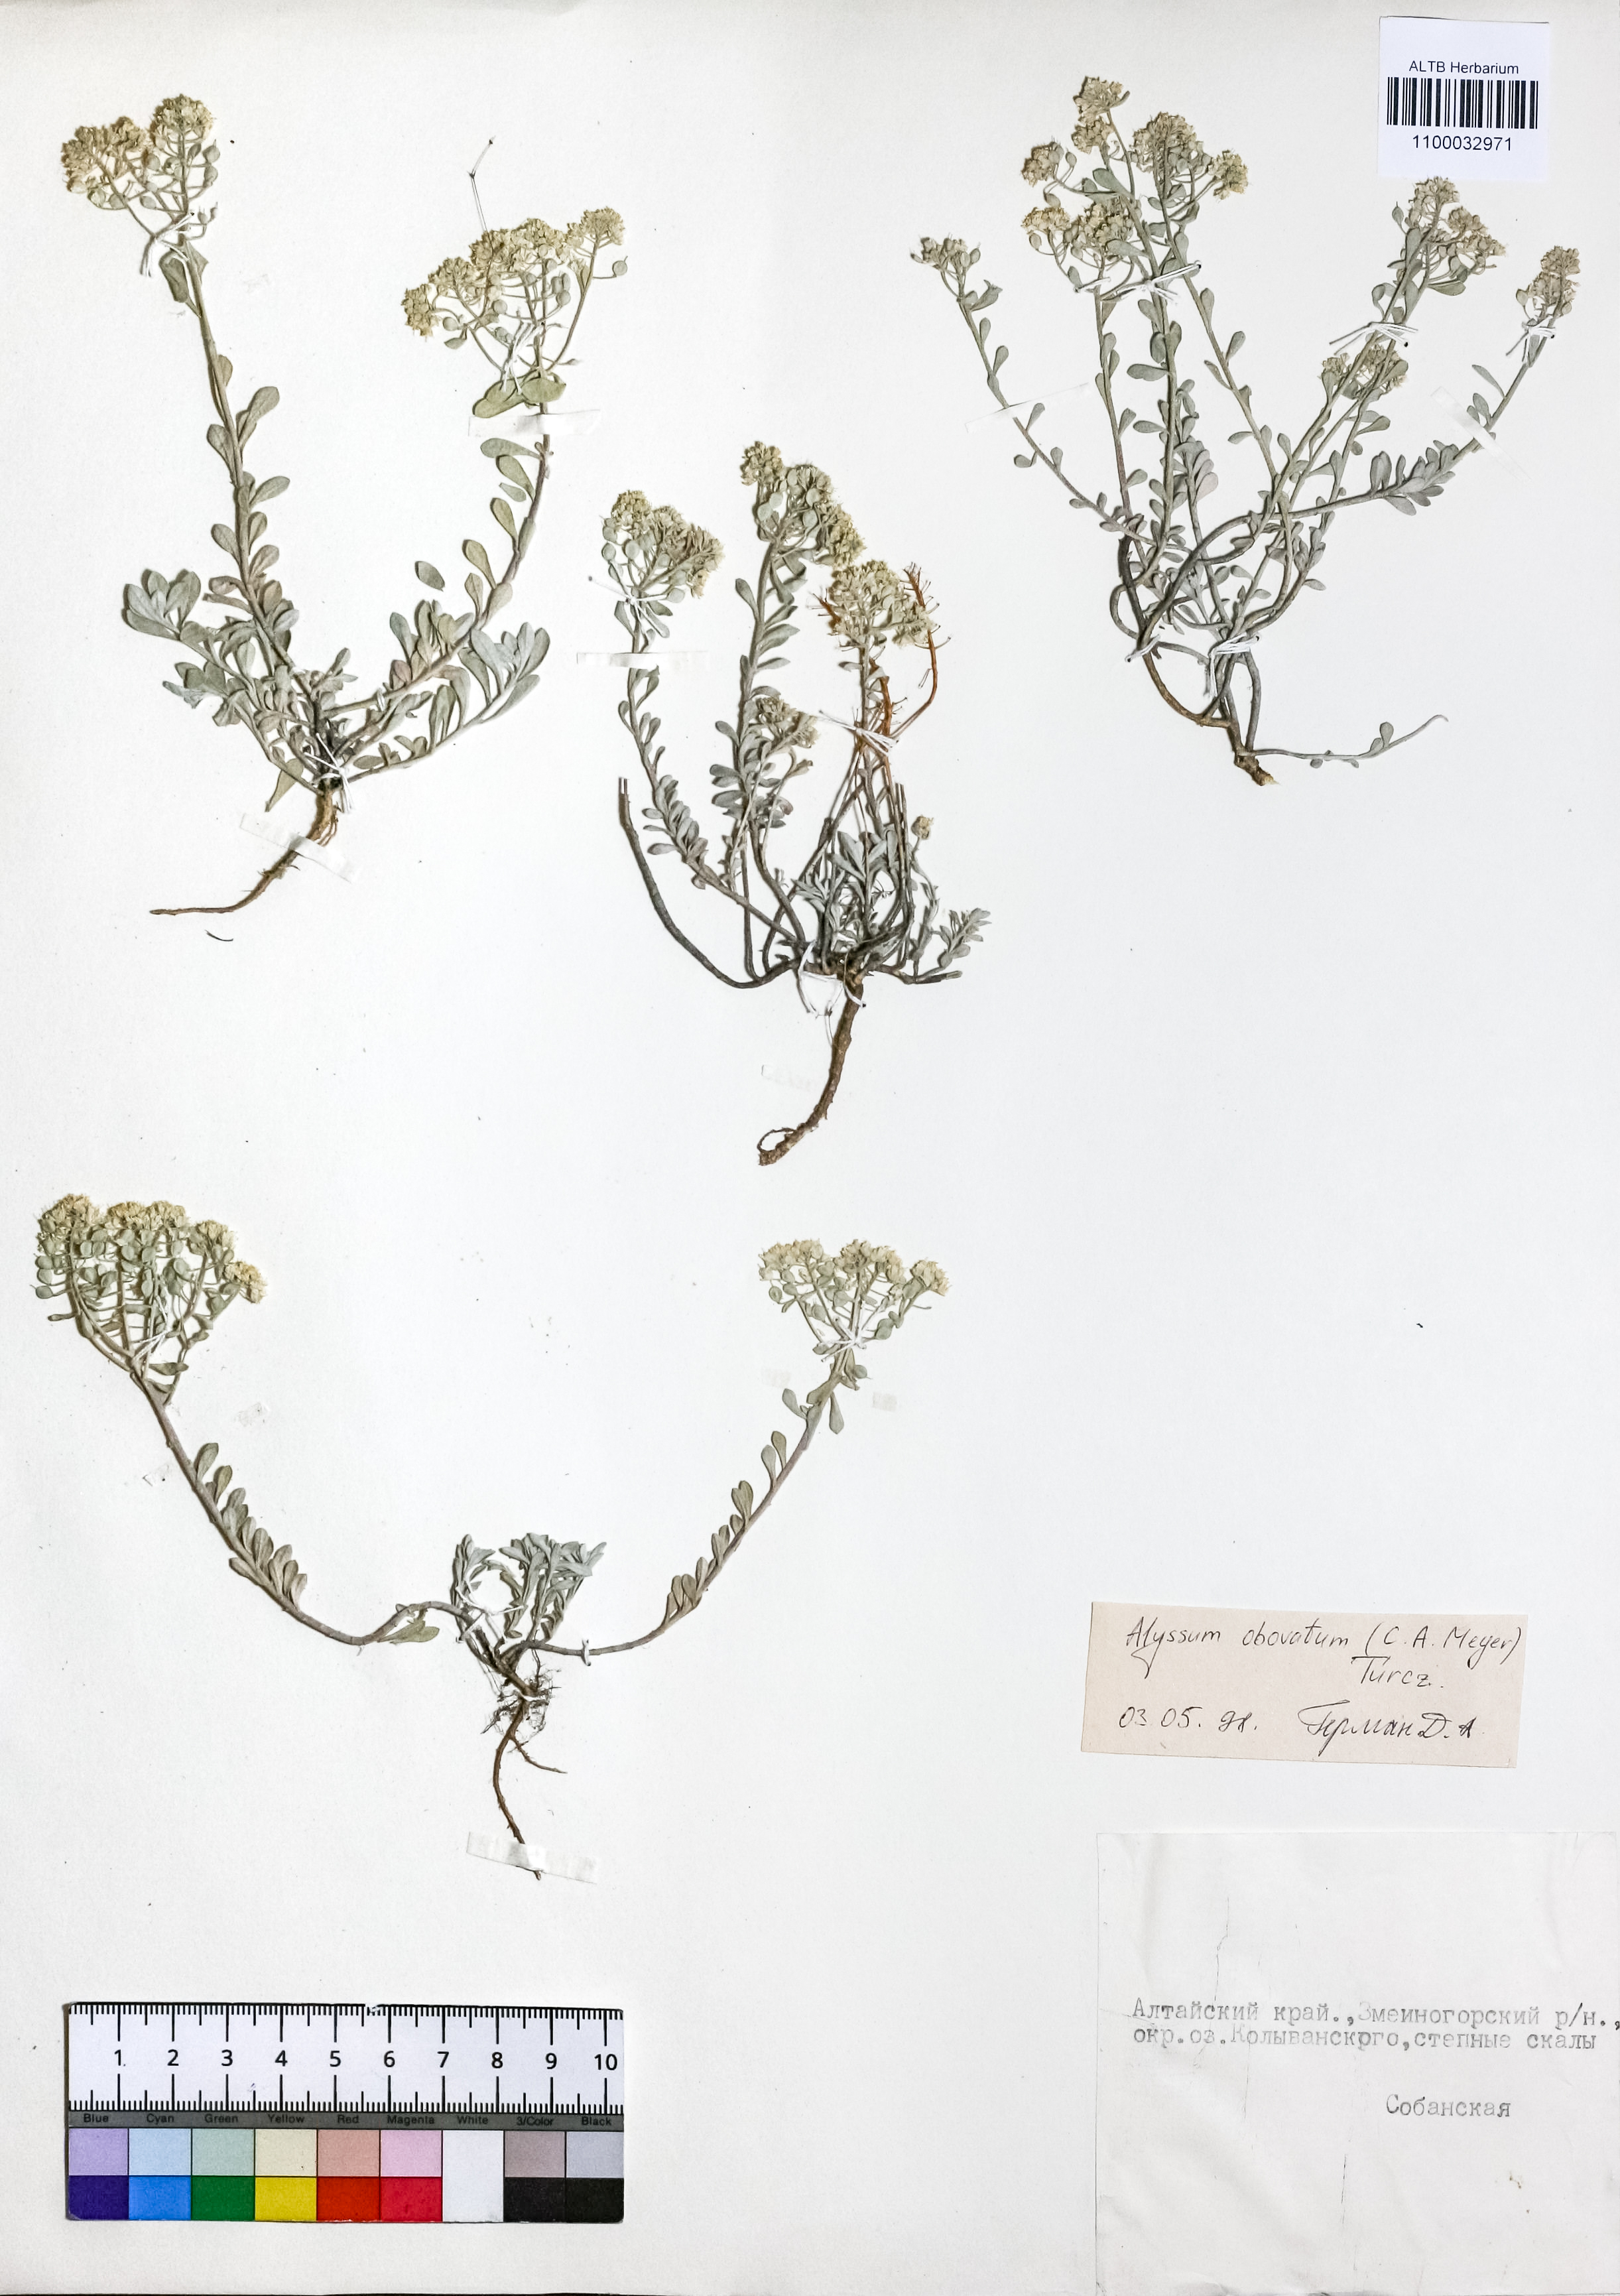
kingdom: Plantae
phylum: Tracheophyta
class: Magnoliopsida
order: Brassicales
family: Brassicaceae
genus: Odontarrhena
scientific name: Odontarrhena obovata
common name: American alyssum
